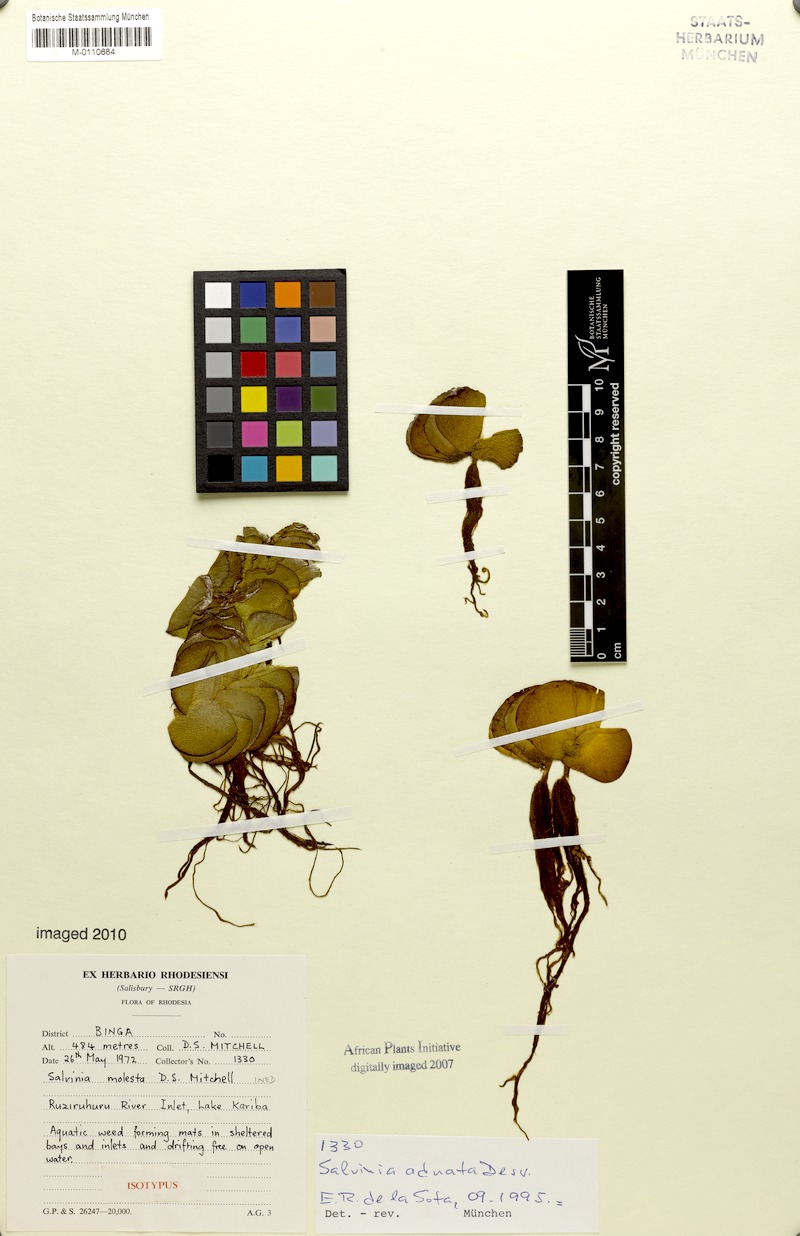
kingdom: Plantae
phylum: Tracheophyta
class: Polypodiopsida
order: Salviniales
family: Salviniaceae
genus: Salvinia
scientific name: Salvinia molesta
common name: Kariba weed
